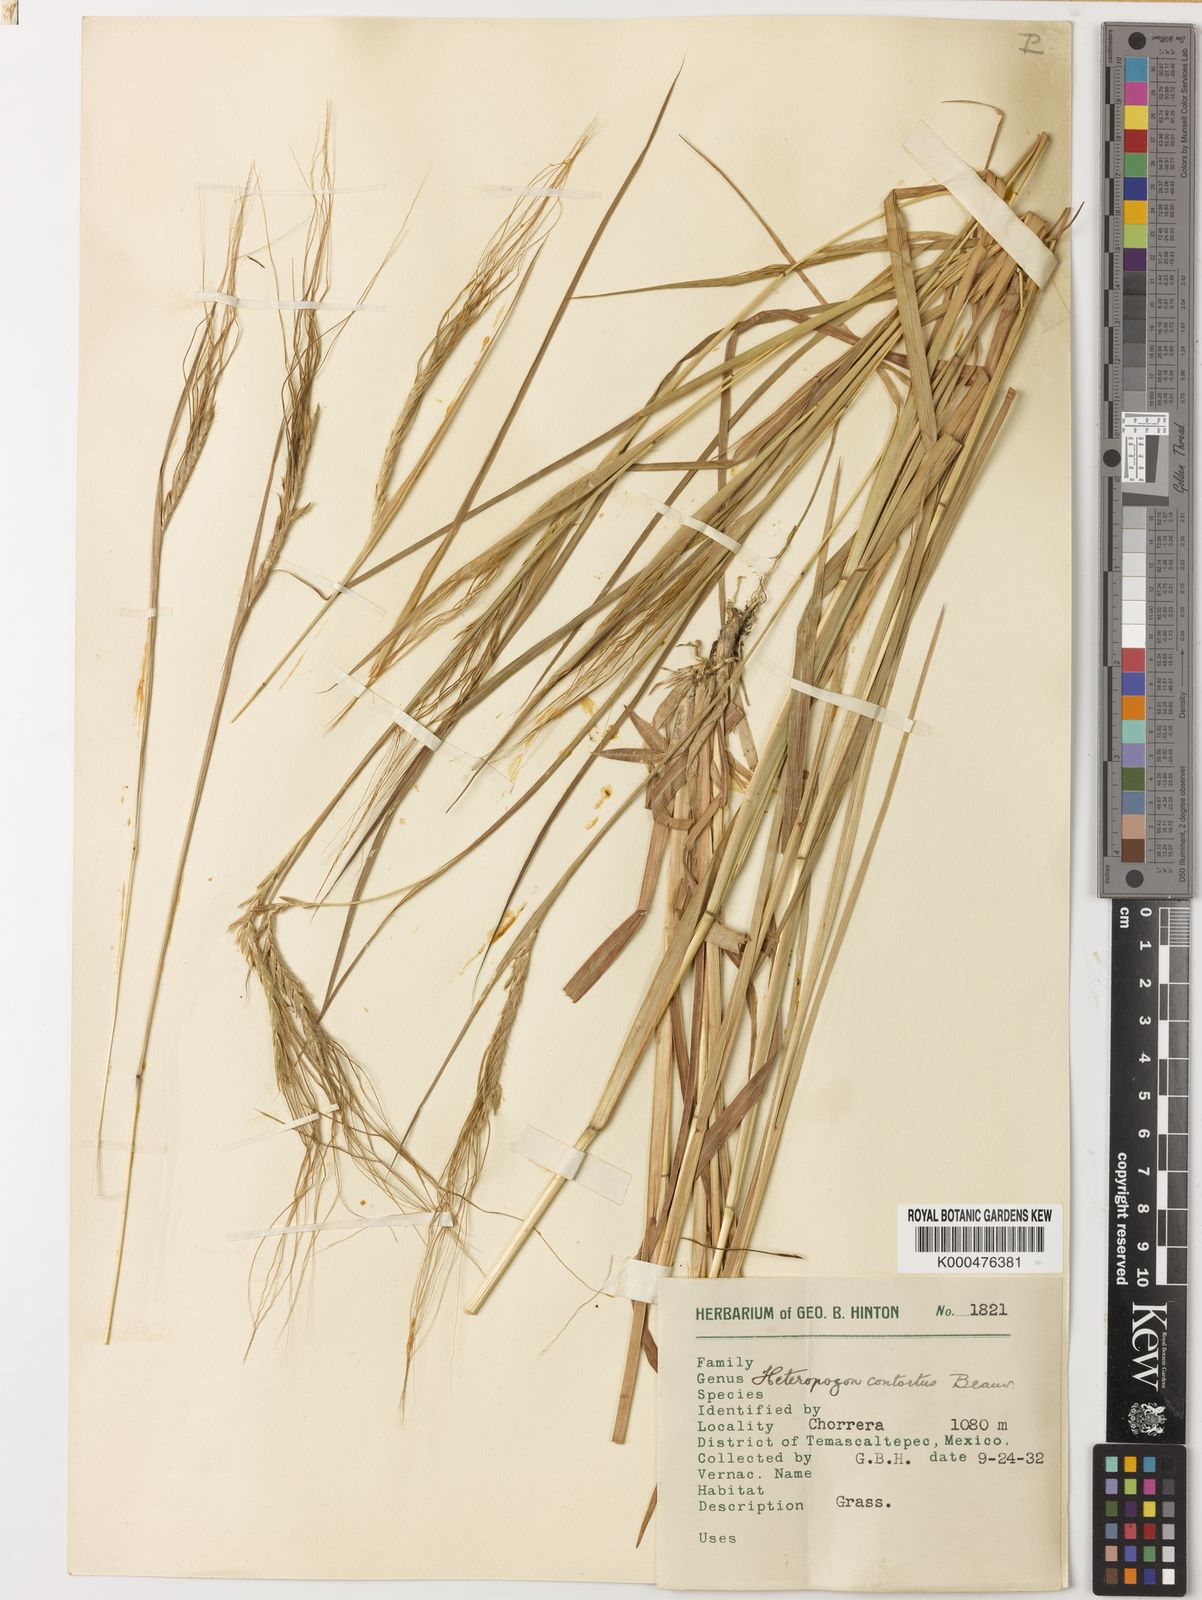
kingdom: Plantae
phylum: Tracheophyta
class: Liliopsida
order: Poales
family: Poaceae
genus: Heteropogon
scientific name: Heteropogon contortus
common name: Tanglehead
